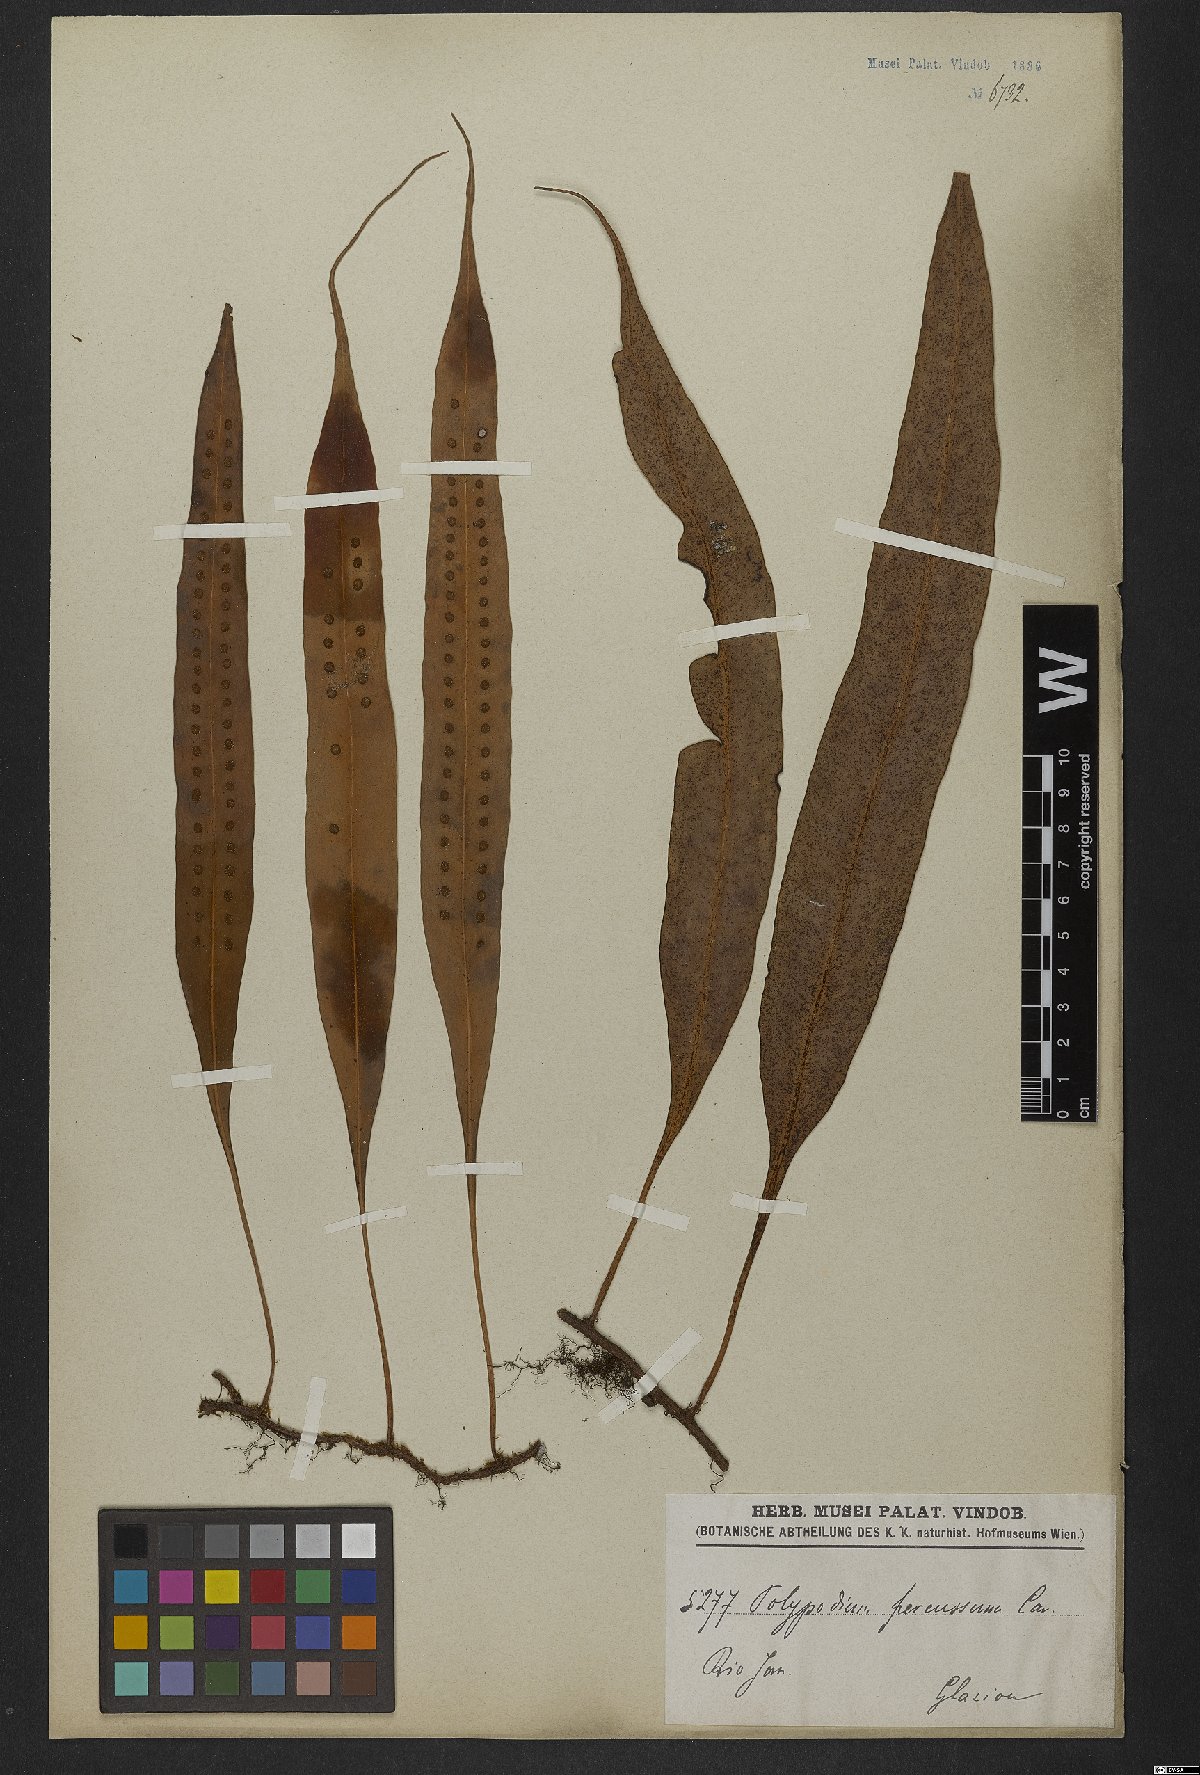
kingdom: Plantae
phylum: Tracheophyta
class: Polypodiopsida
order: Polypodiales
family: Polypodiaceae
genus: Microgramma
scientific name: Microgramma percussa
